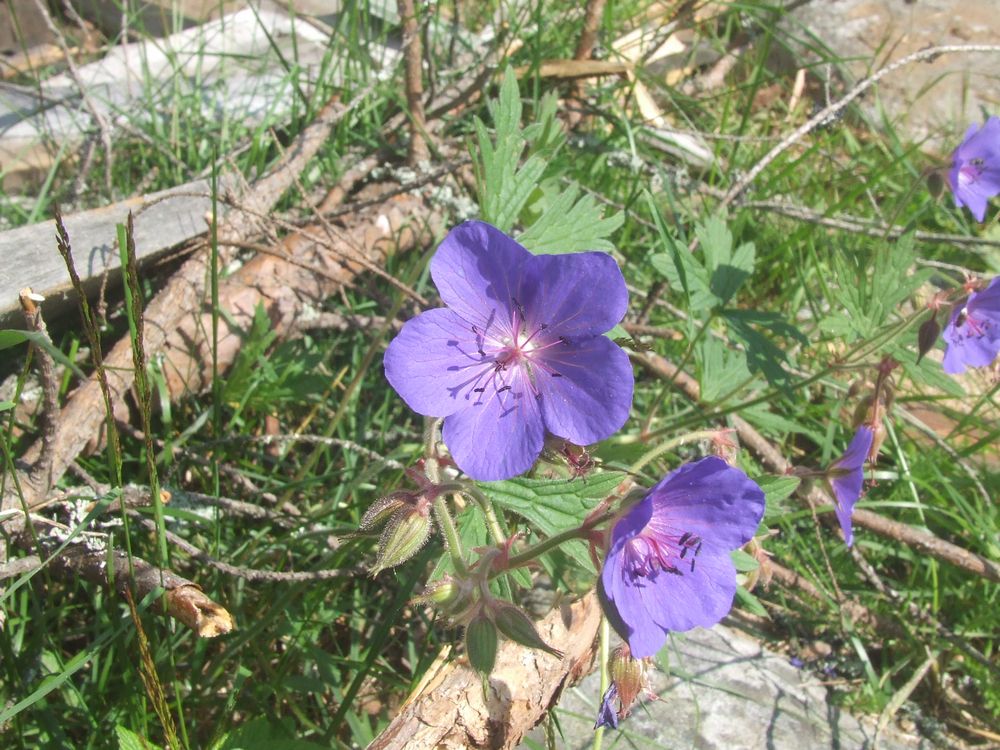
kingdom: Plantae
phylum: Tracheophyta
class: Magnoliopsida
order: Geraniales
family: Geraniaceae
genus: Geranium
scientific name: Geranium pratense
